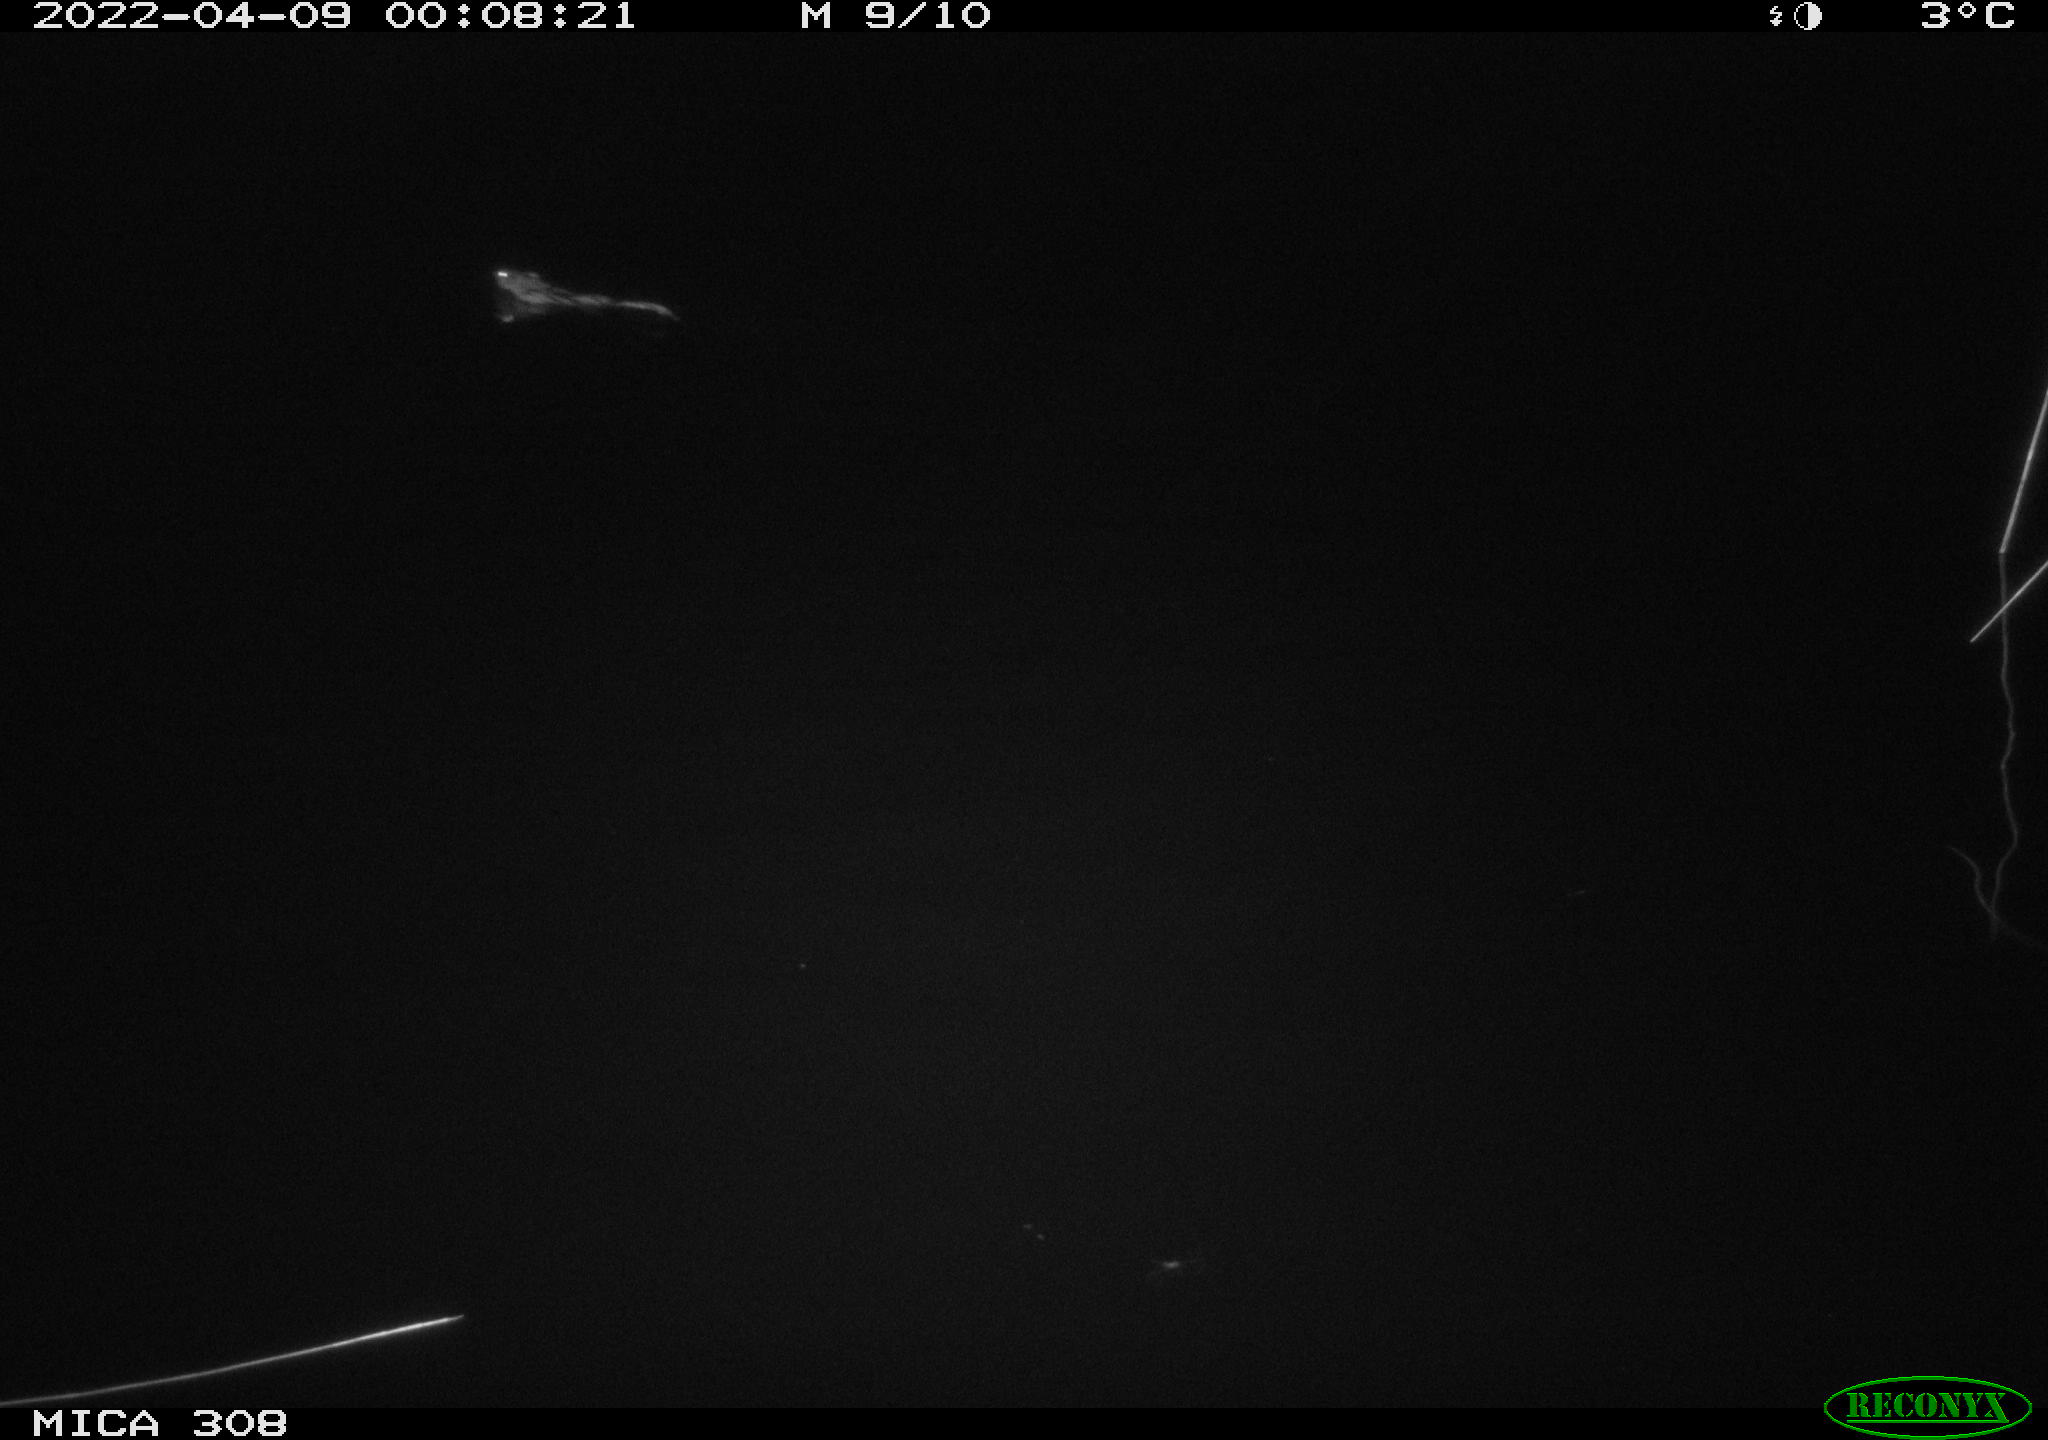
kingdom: Animalia
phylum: Chordata
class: Mammalia
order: Rodentia
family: Cricetidae
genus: Ondatra
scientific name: Ondatra zibethicus
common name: Muskrat
